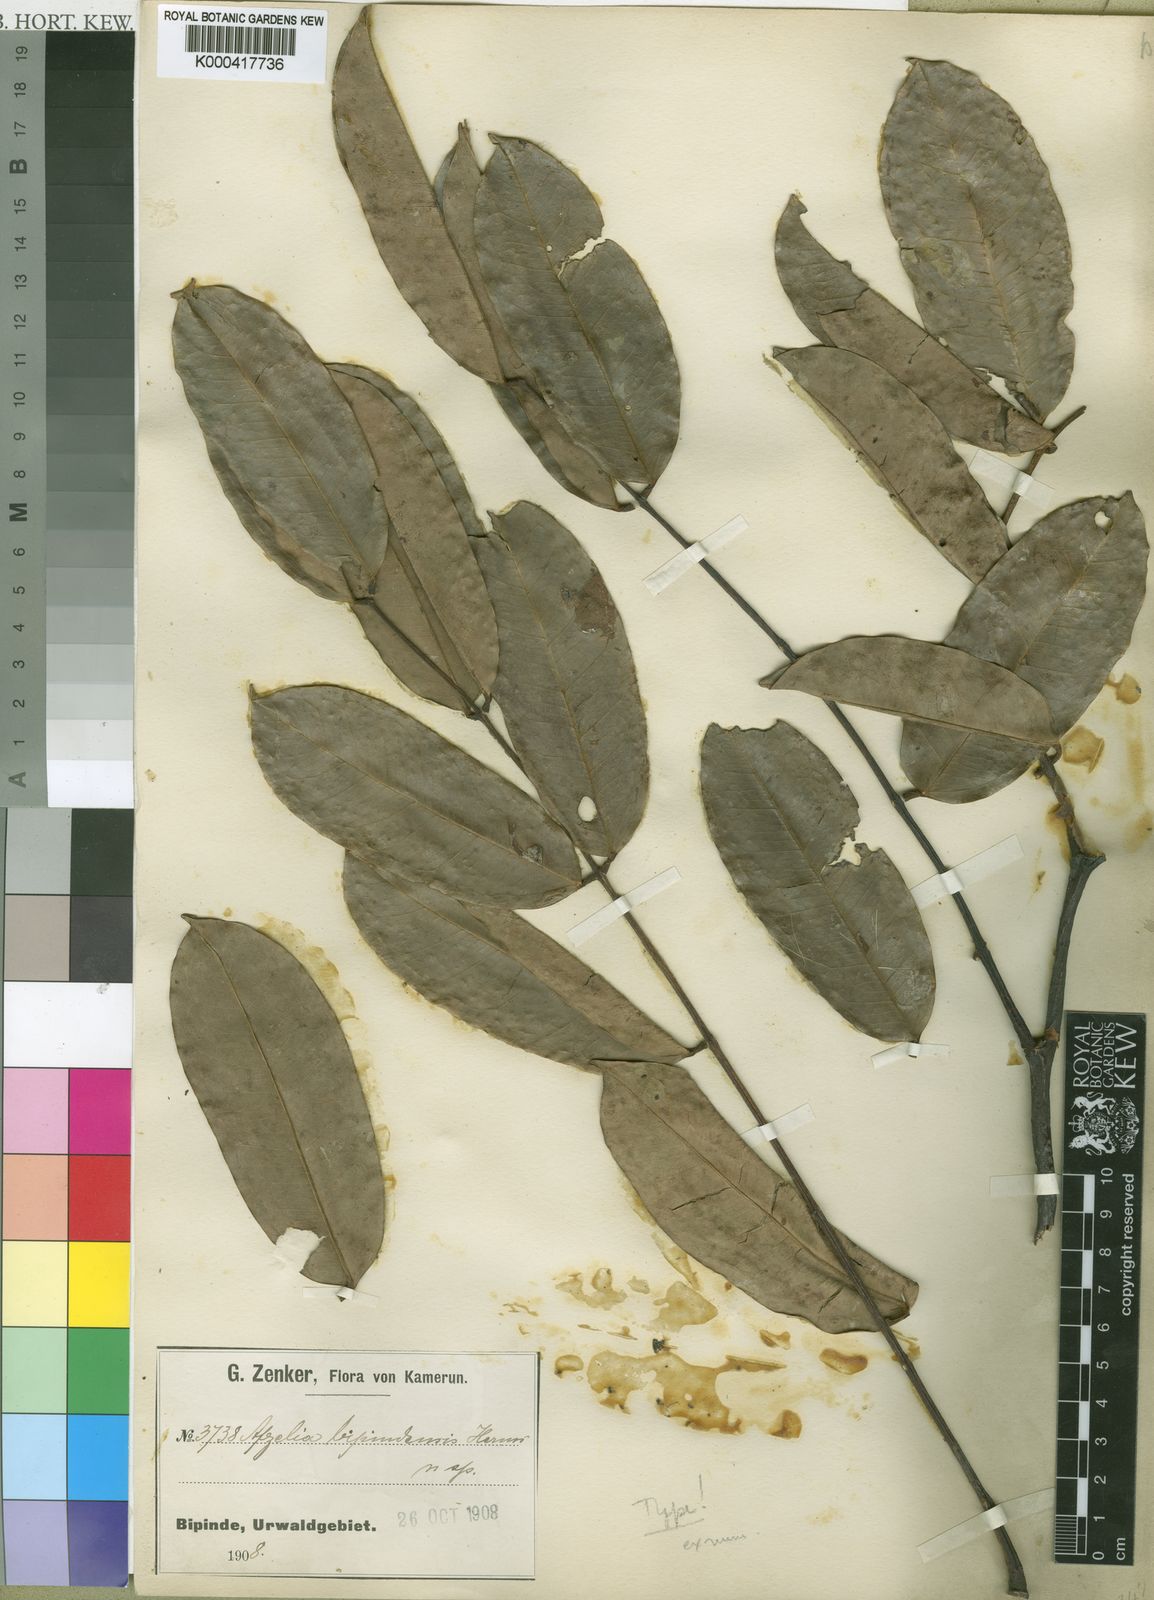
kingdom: Plantae
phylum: Tracheophyta
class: Magnoliopsida
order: Fabales
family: Fabaceae
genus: Afzelia
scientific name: Afzelia bipindensis
